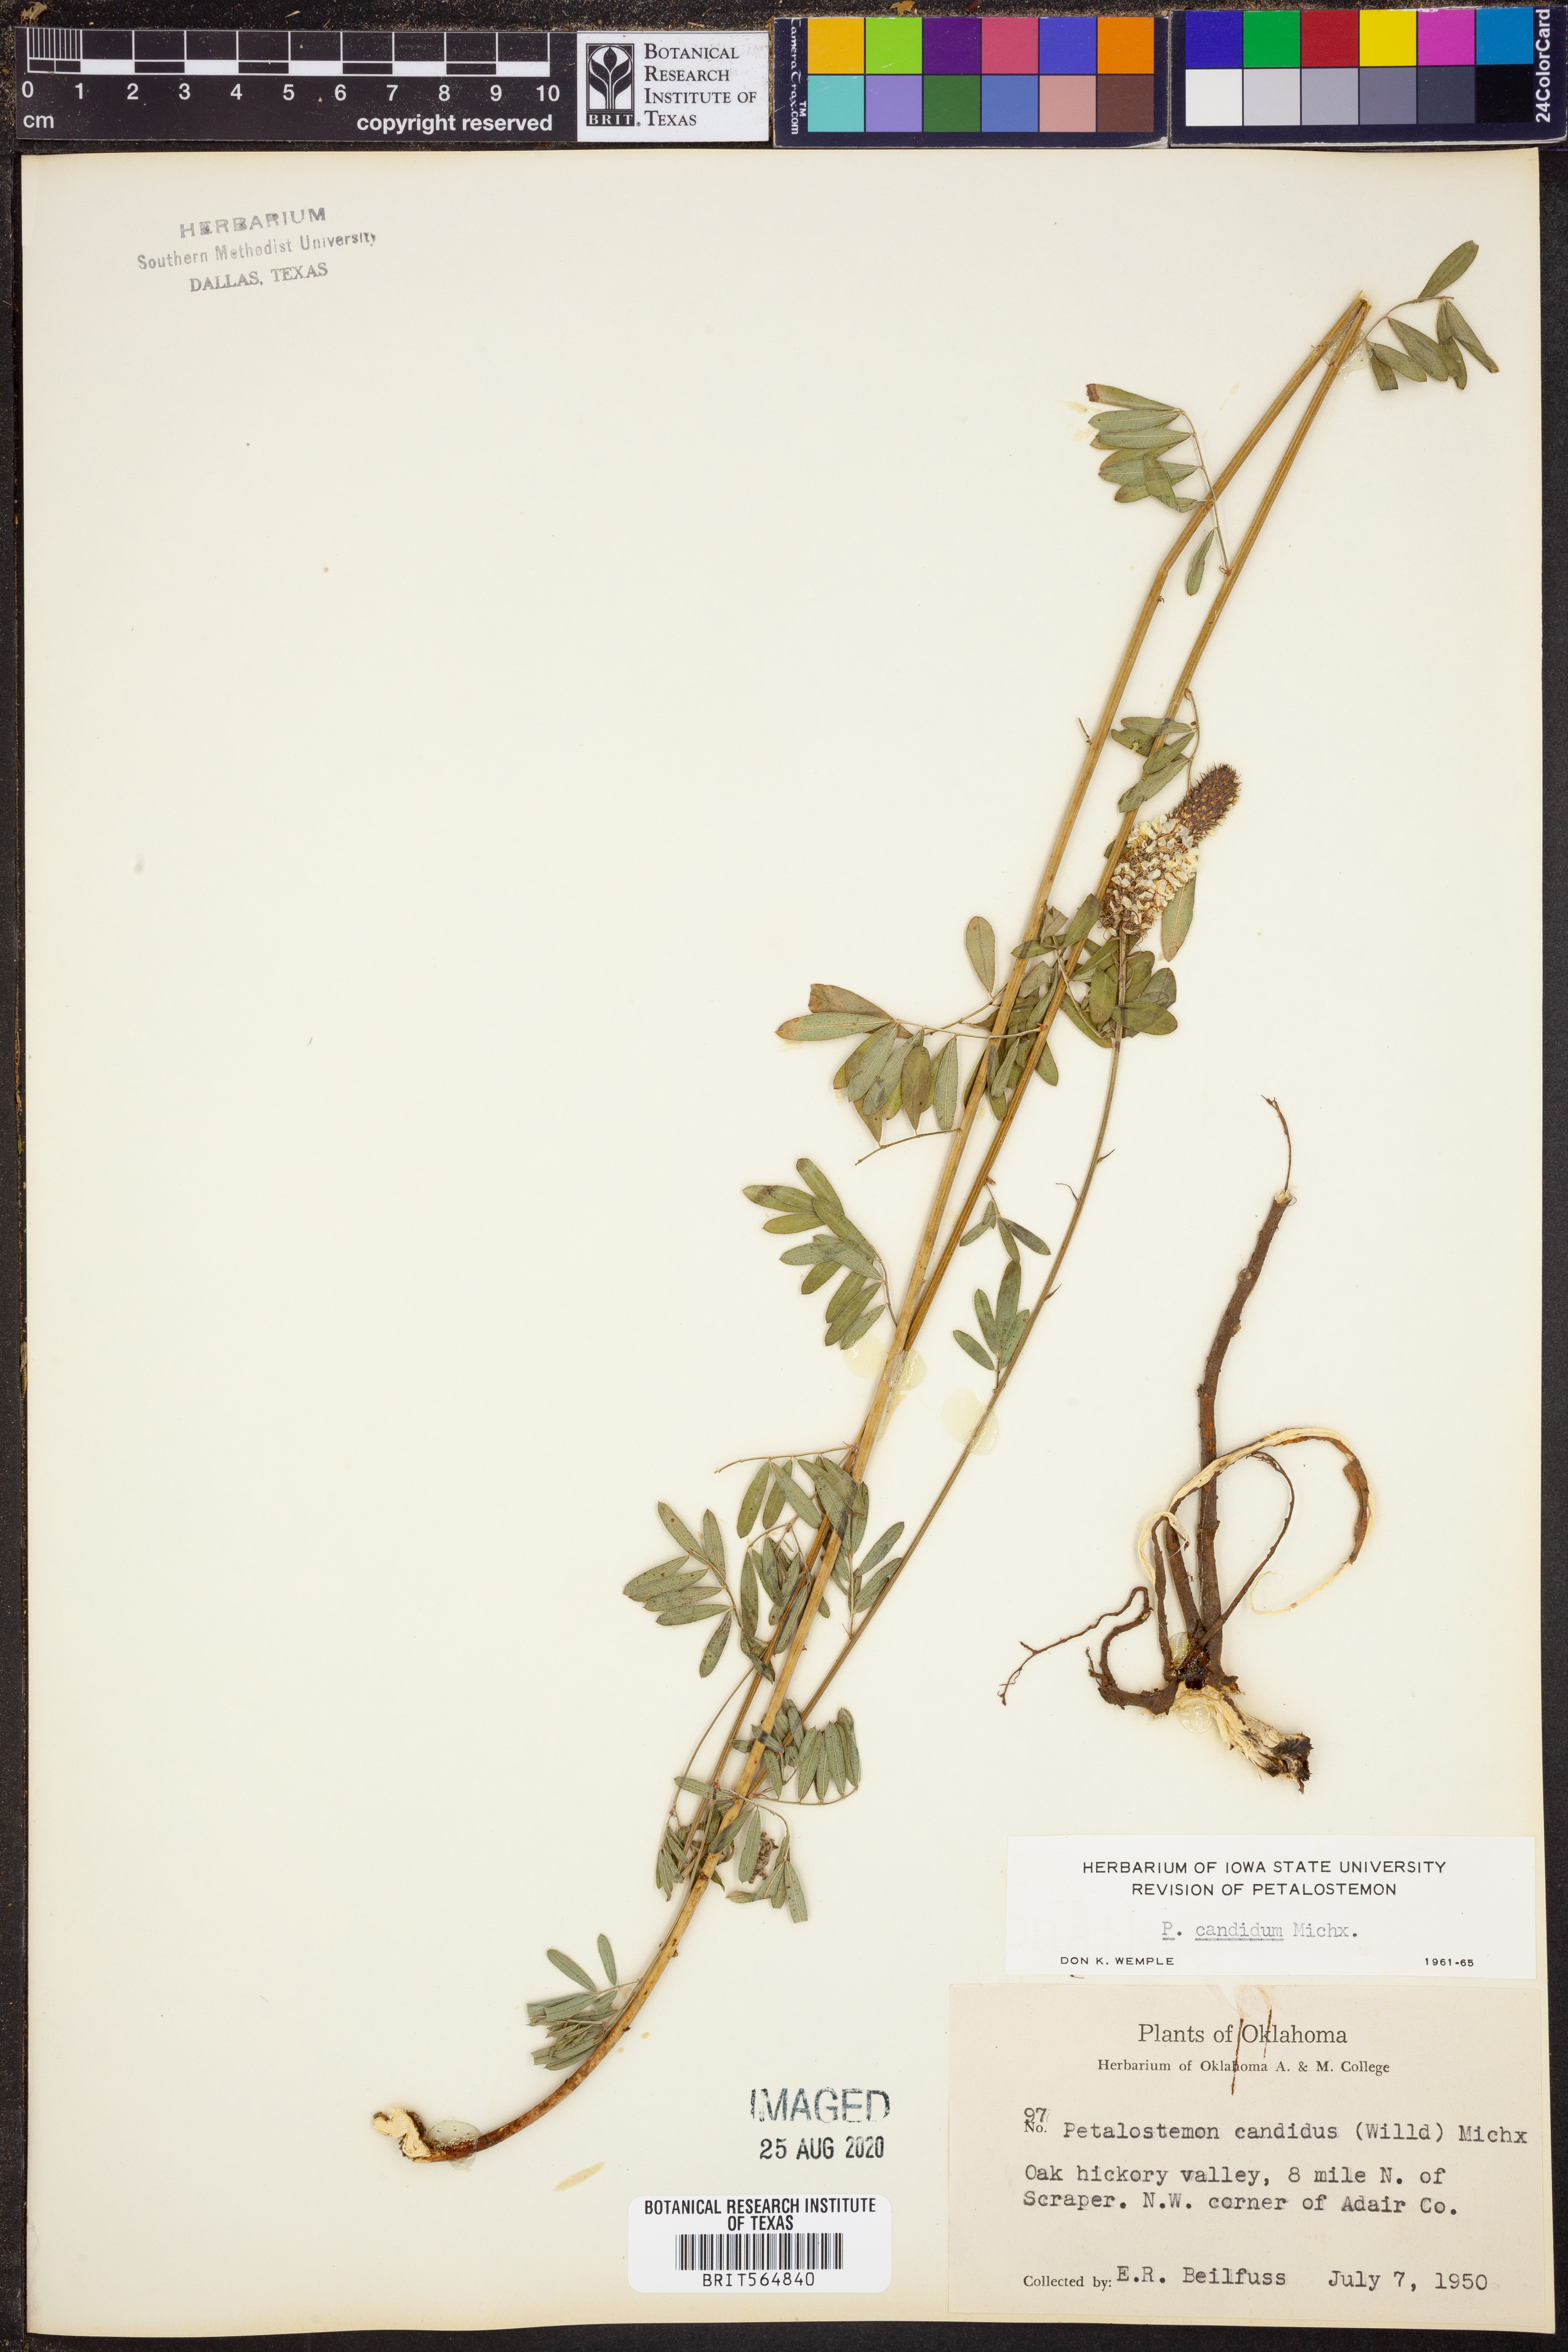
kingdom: Plantae
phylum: Tracheophyta
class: Magnoliopsida
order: Fabales
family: Fabaceae
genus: Dalea
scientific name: Dalea candida
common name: White prairie-clover
